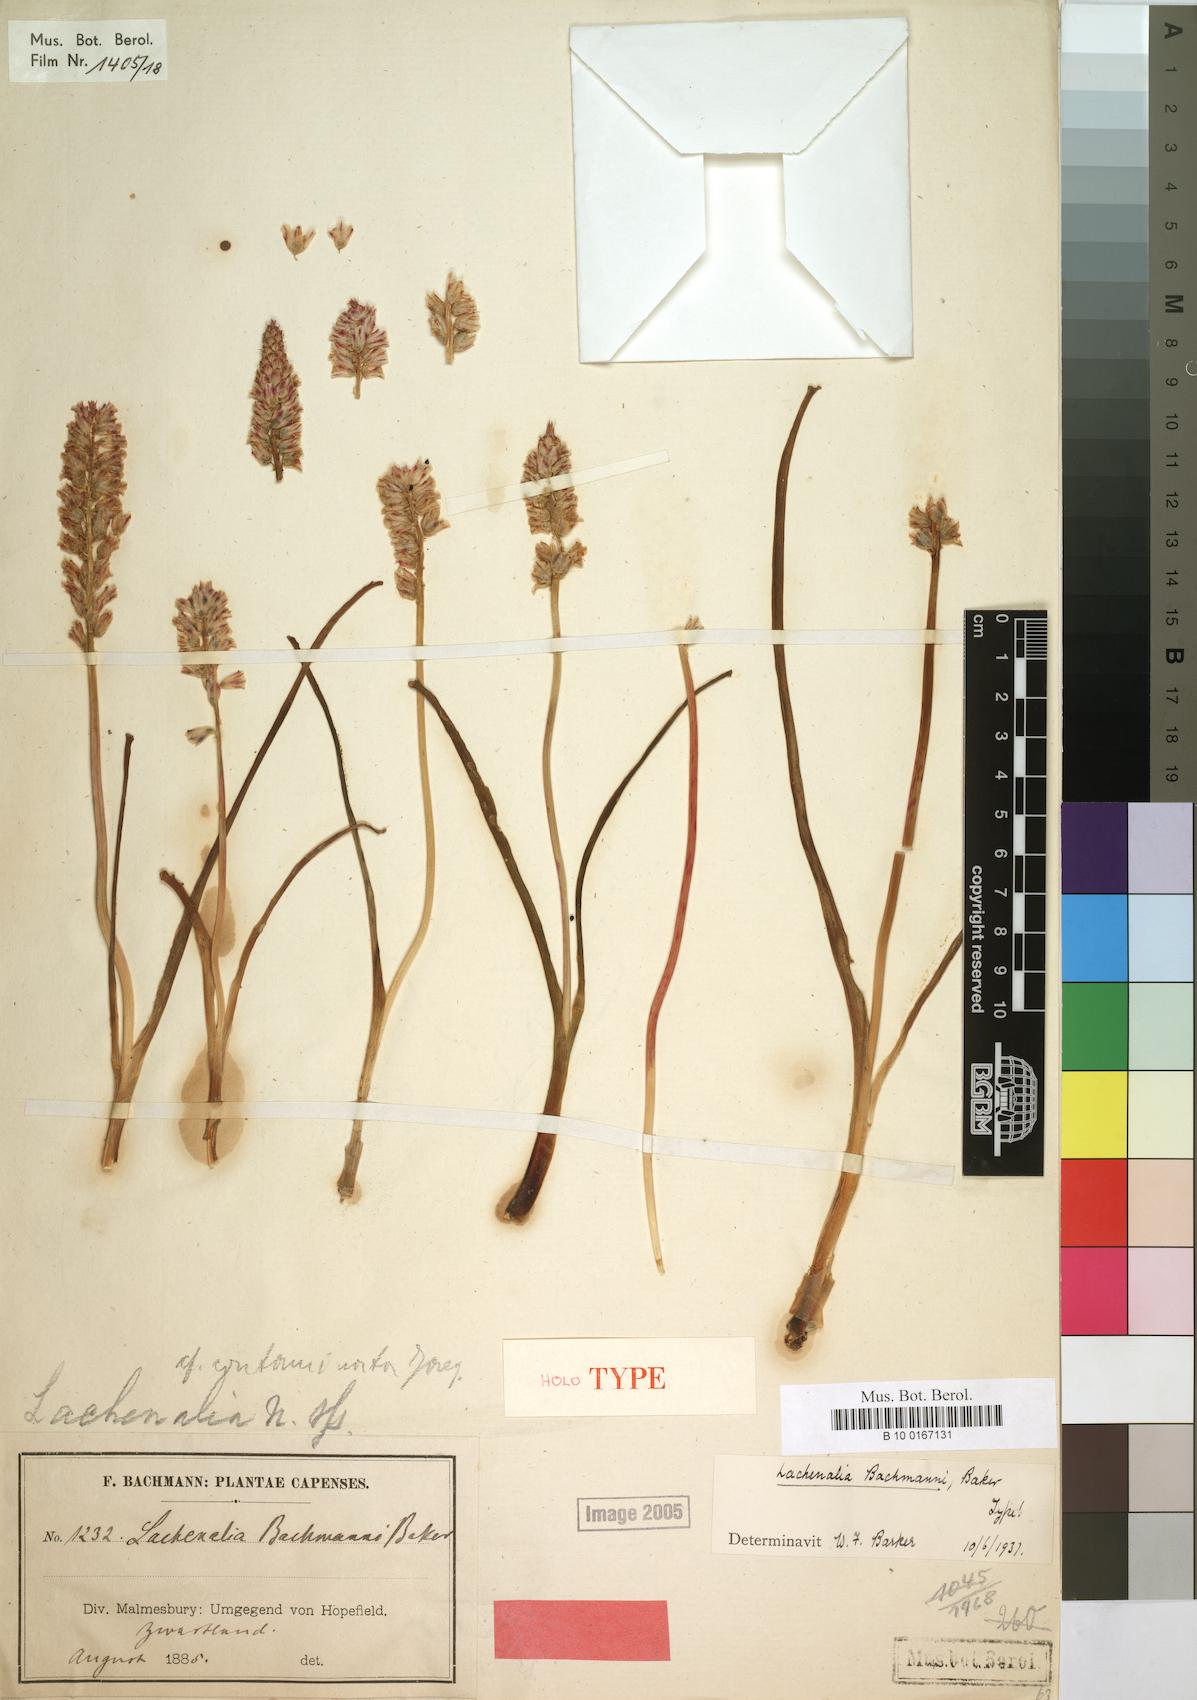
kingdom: Plantae
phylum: Tracheophyta
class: Liliopsida
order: Asparagales
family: Asparagaceae
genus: Lachenalia
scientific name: Lachenalia bachmannii
